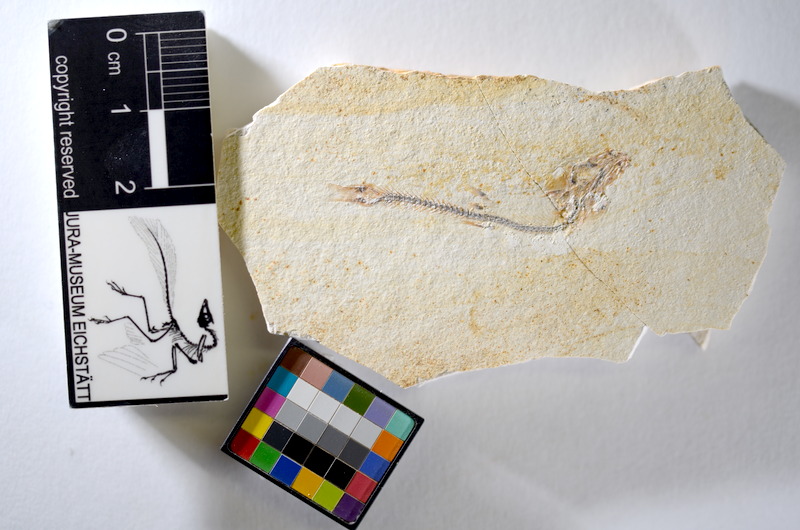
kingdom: Animalia
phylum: Chordata
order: Salmoniformes
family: Orthogonikleithridae
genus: Orthogonikleithrus
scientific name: Orthogonikleithrus hoelli
